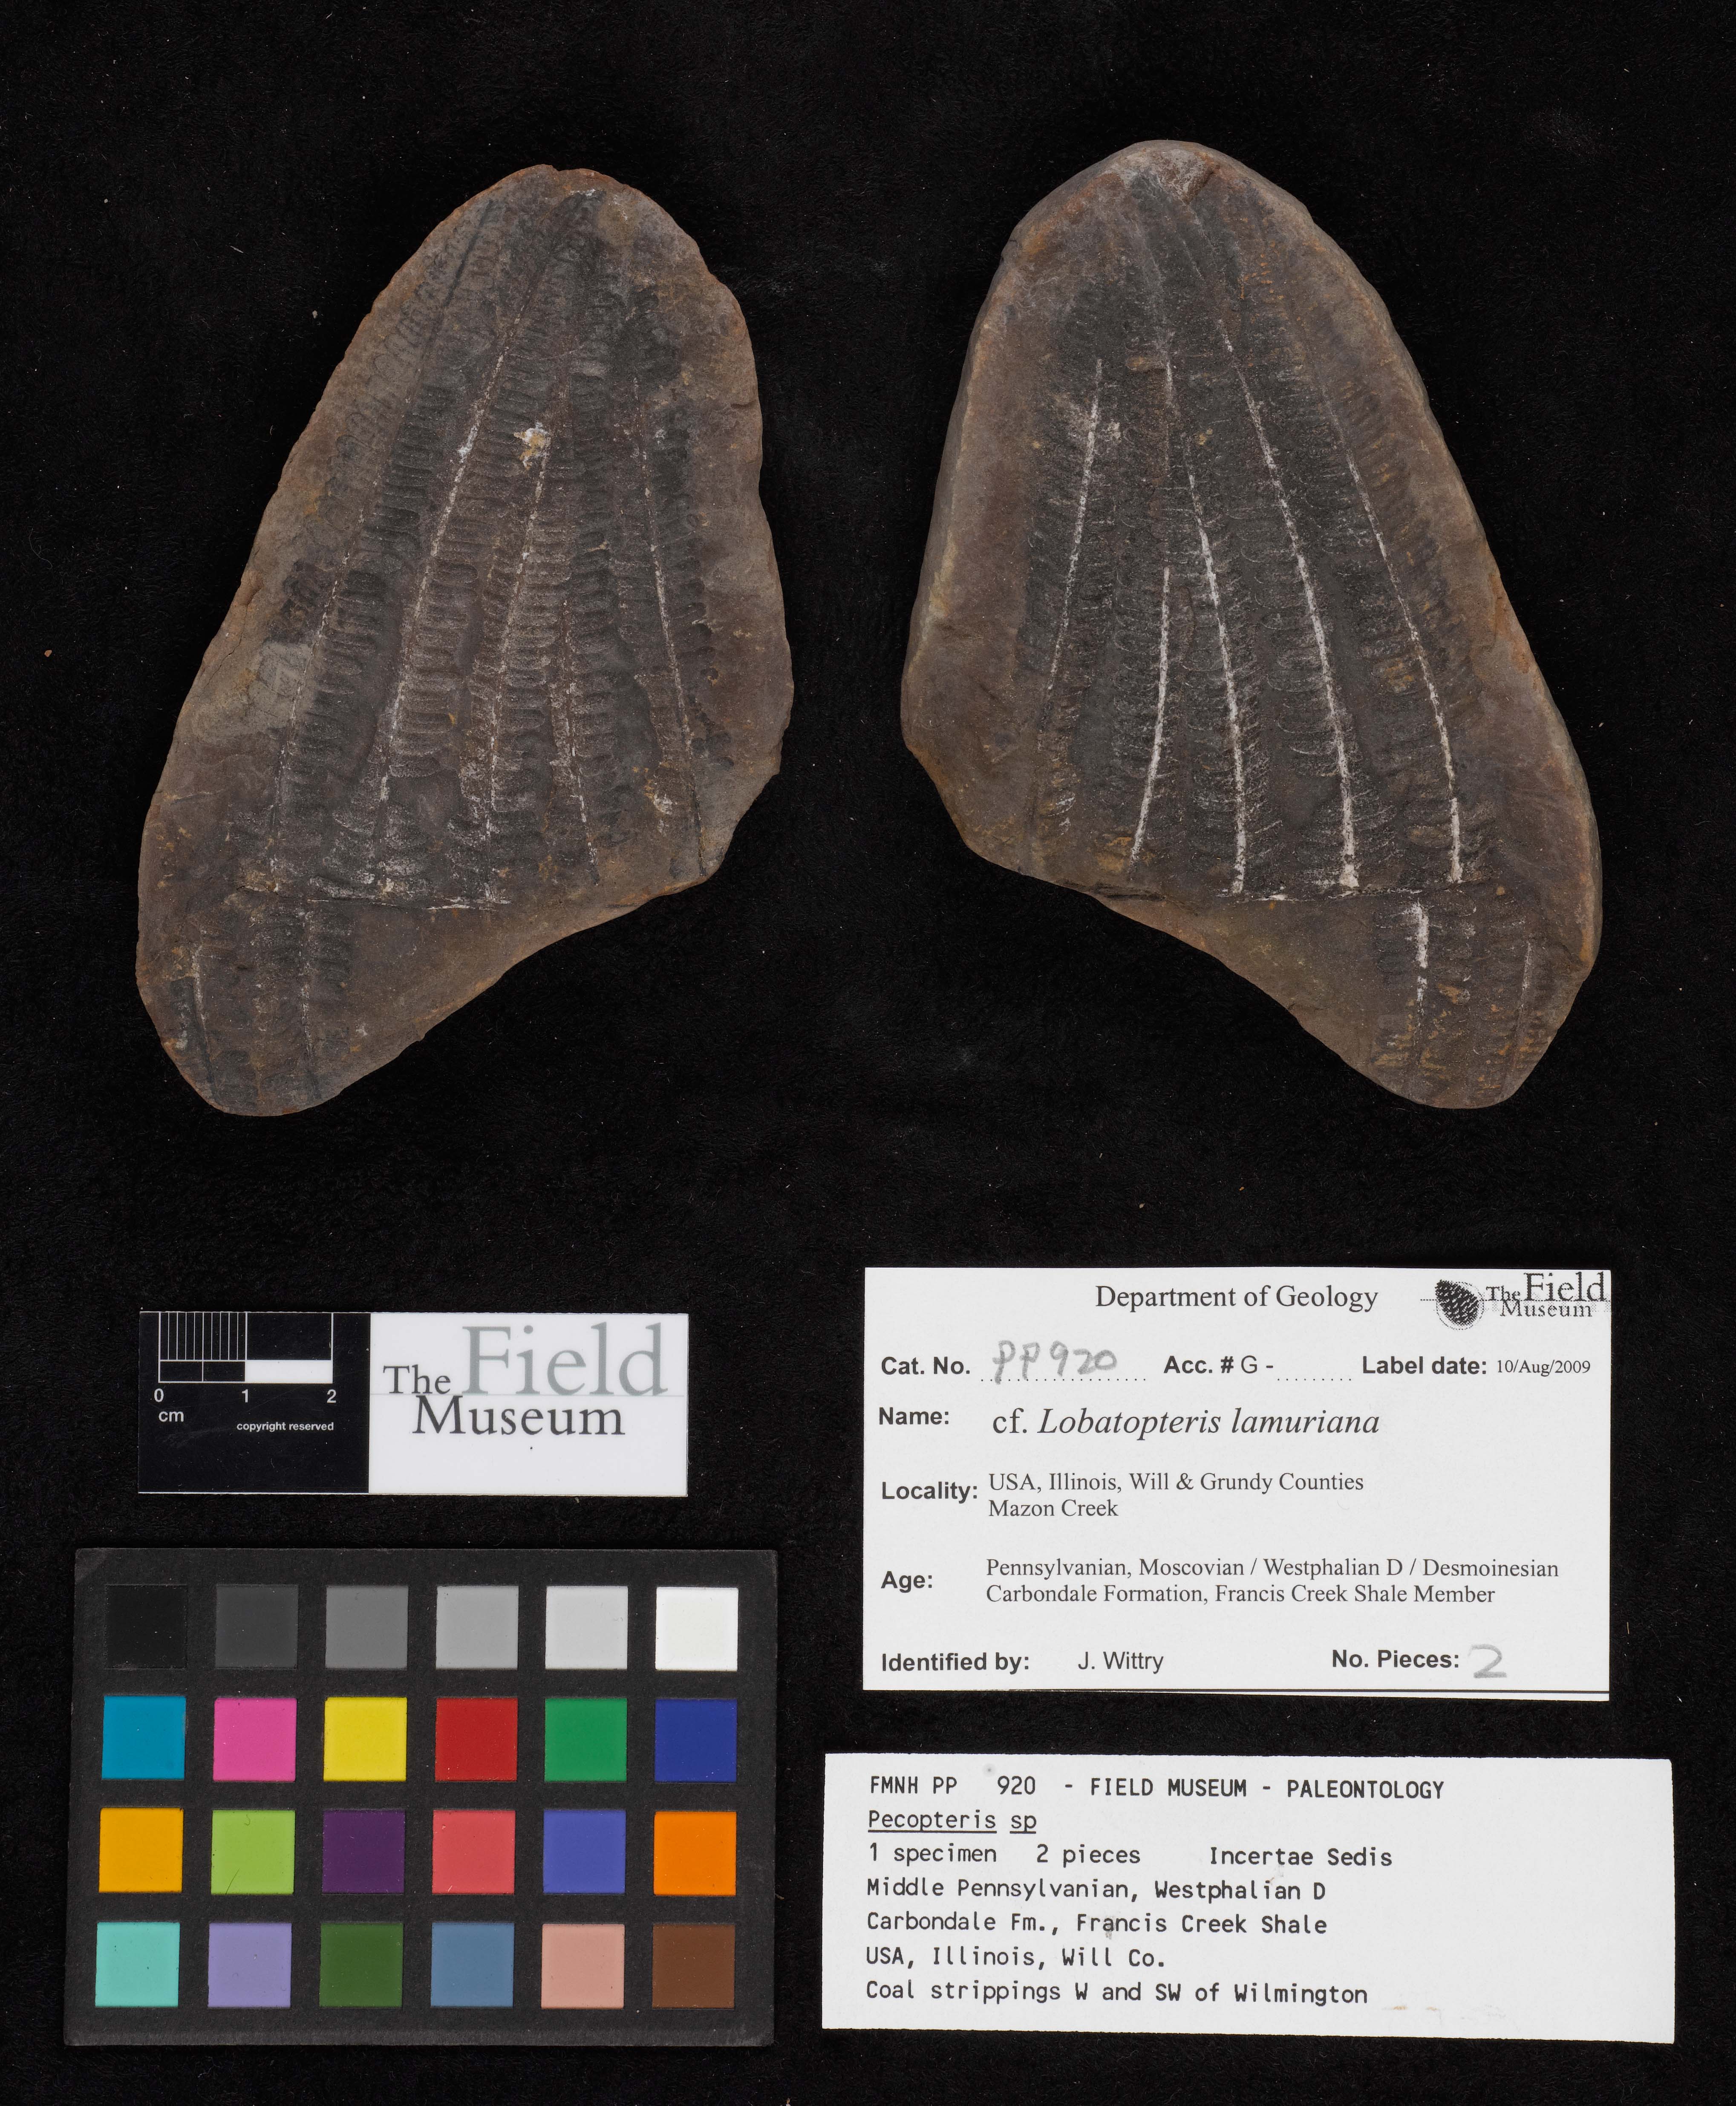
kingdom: Plantae
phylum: Tracheophyta
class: Polypodiopsida
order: Marattiales
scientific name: Marattiales
